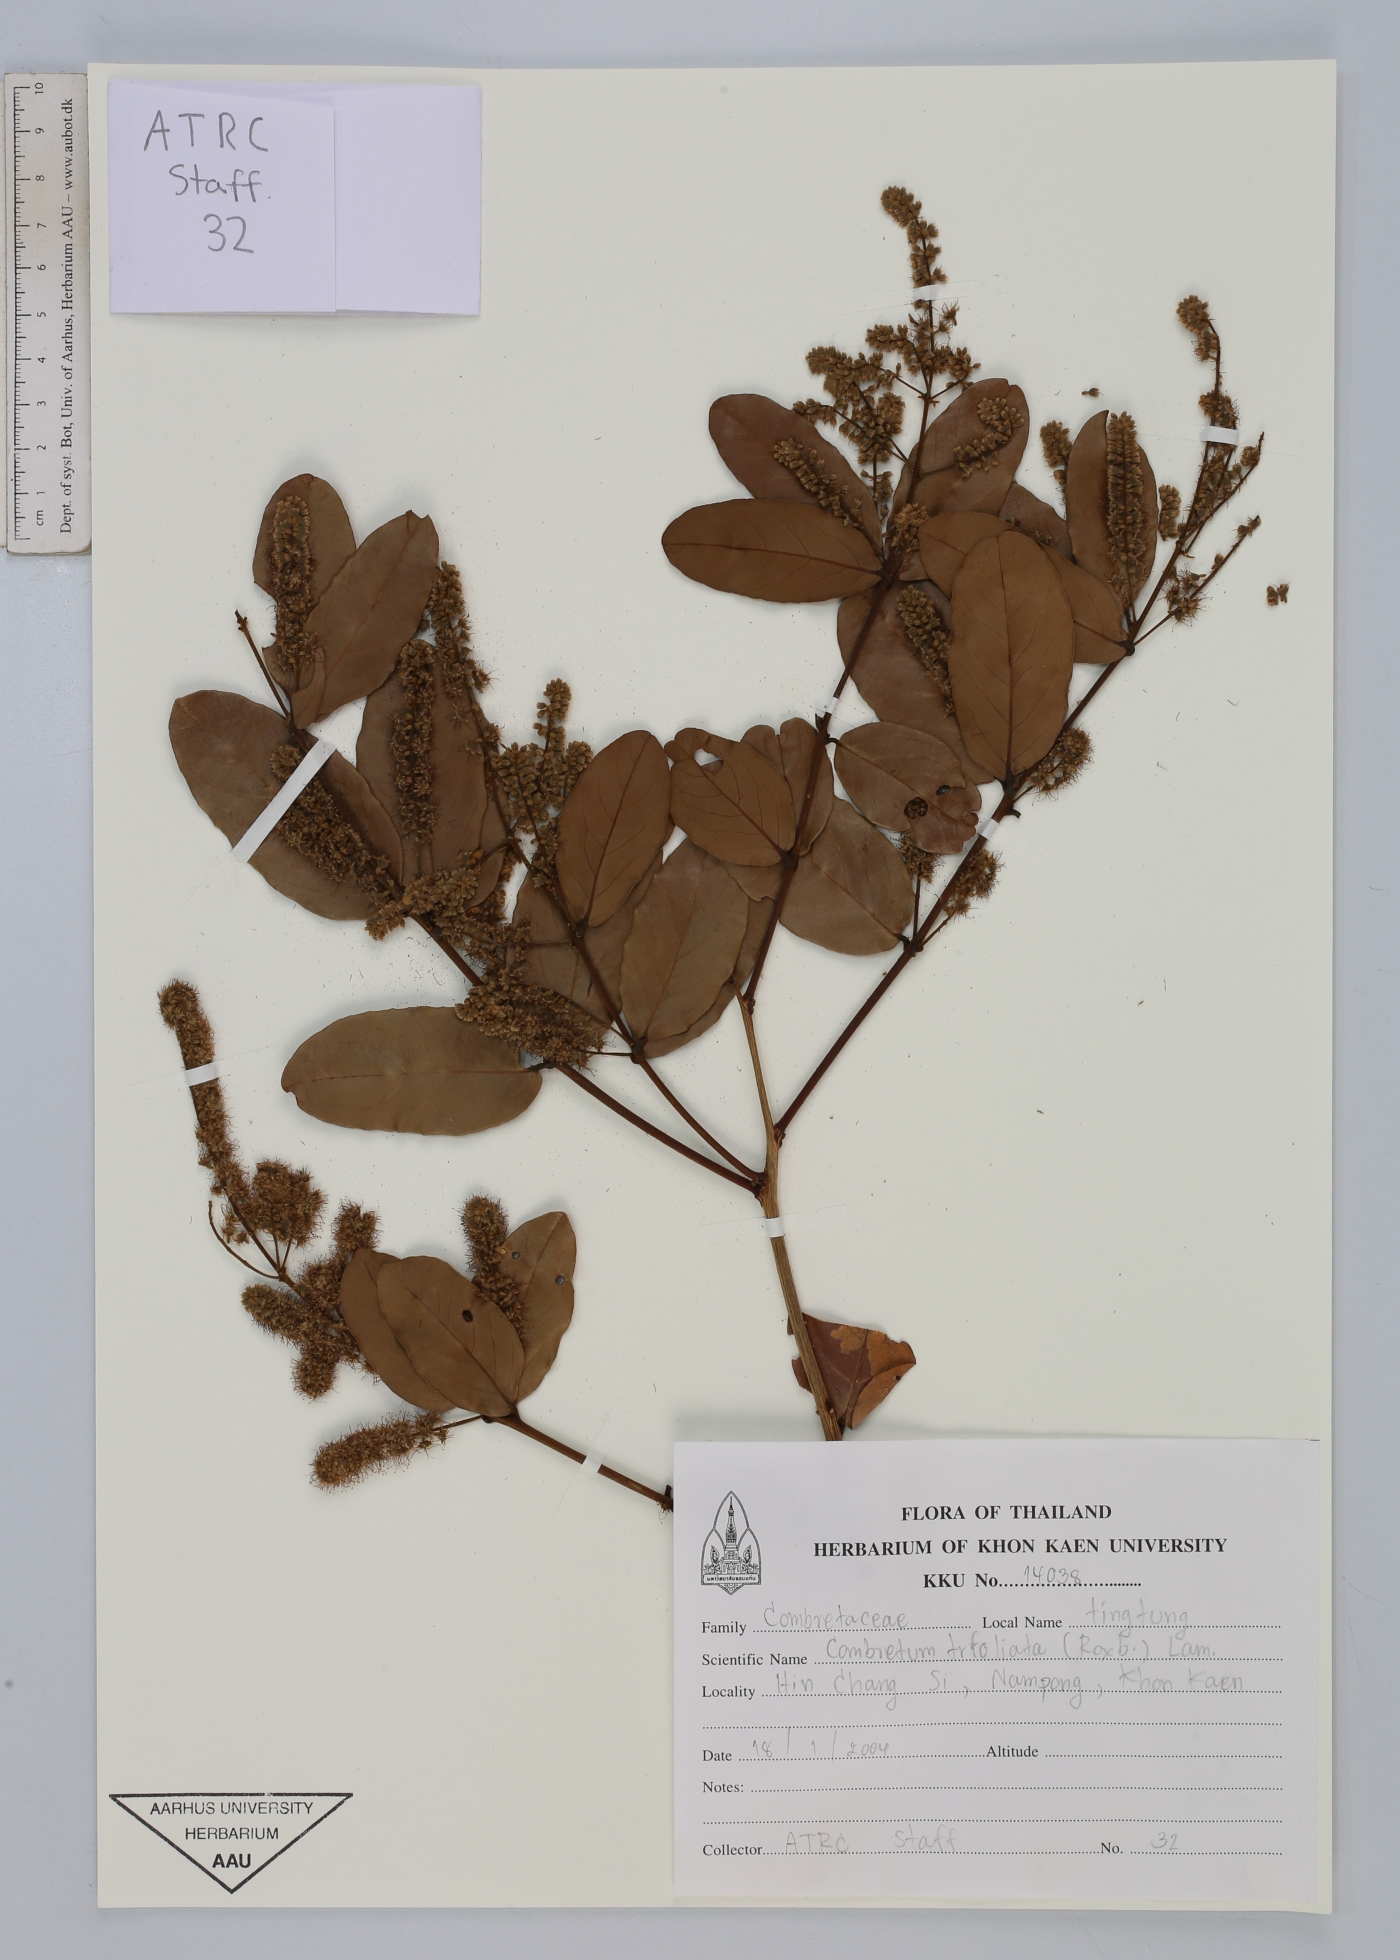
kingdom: Plantae
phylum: Tracheophyta
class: Magnoliopsida
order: Myrtales
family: Combretaceae
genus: Combretum
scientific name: Combretum trifoliatum
